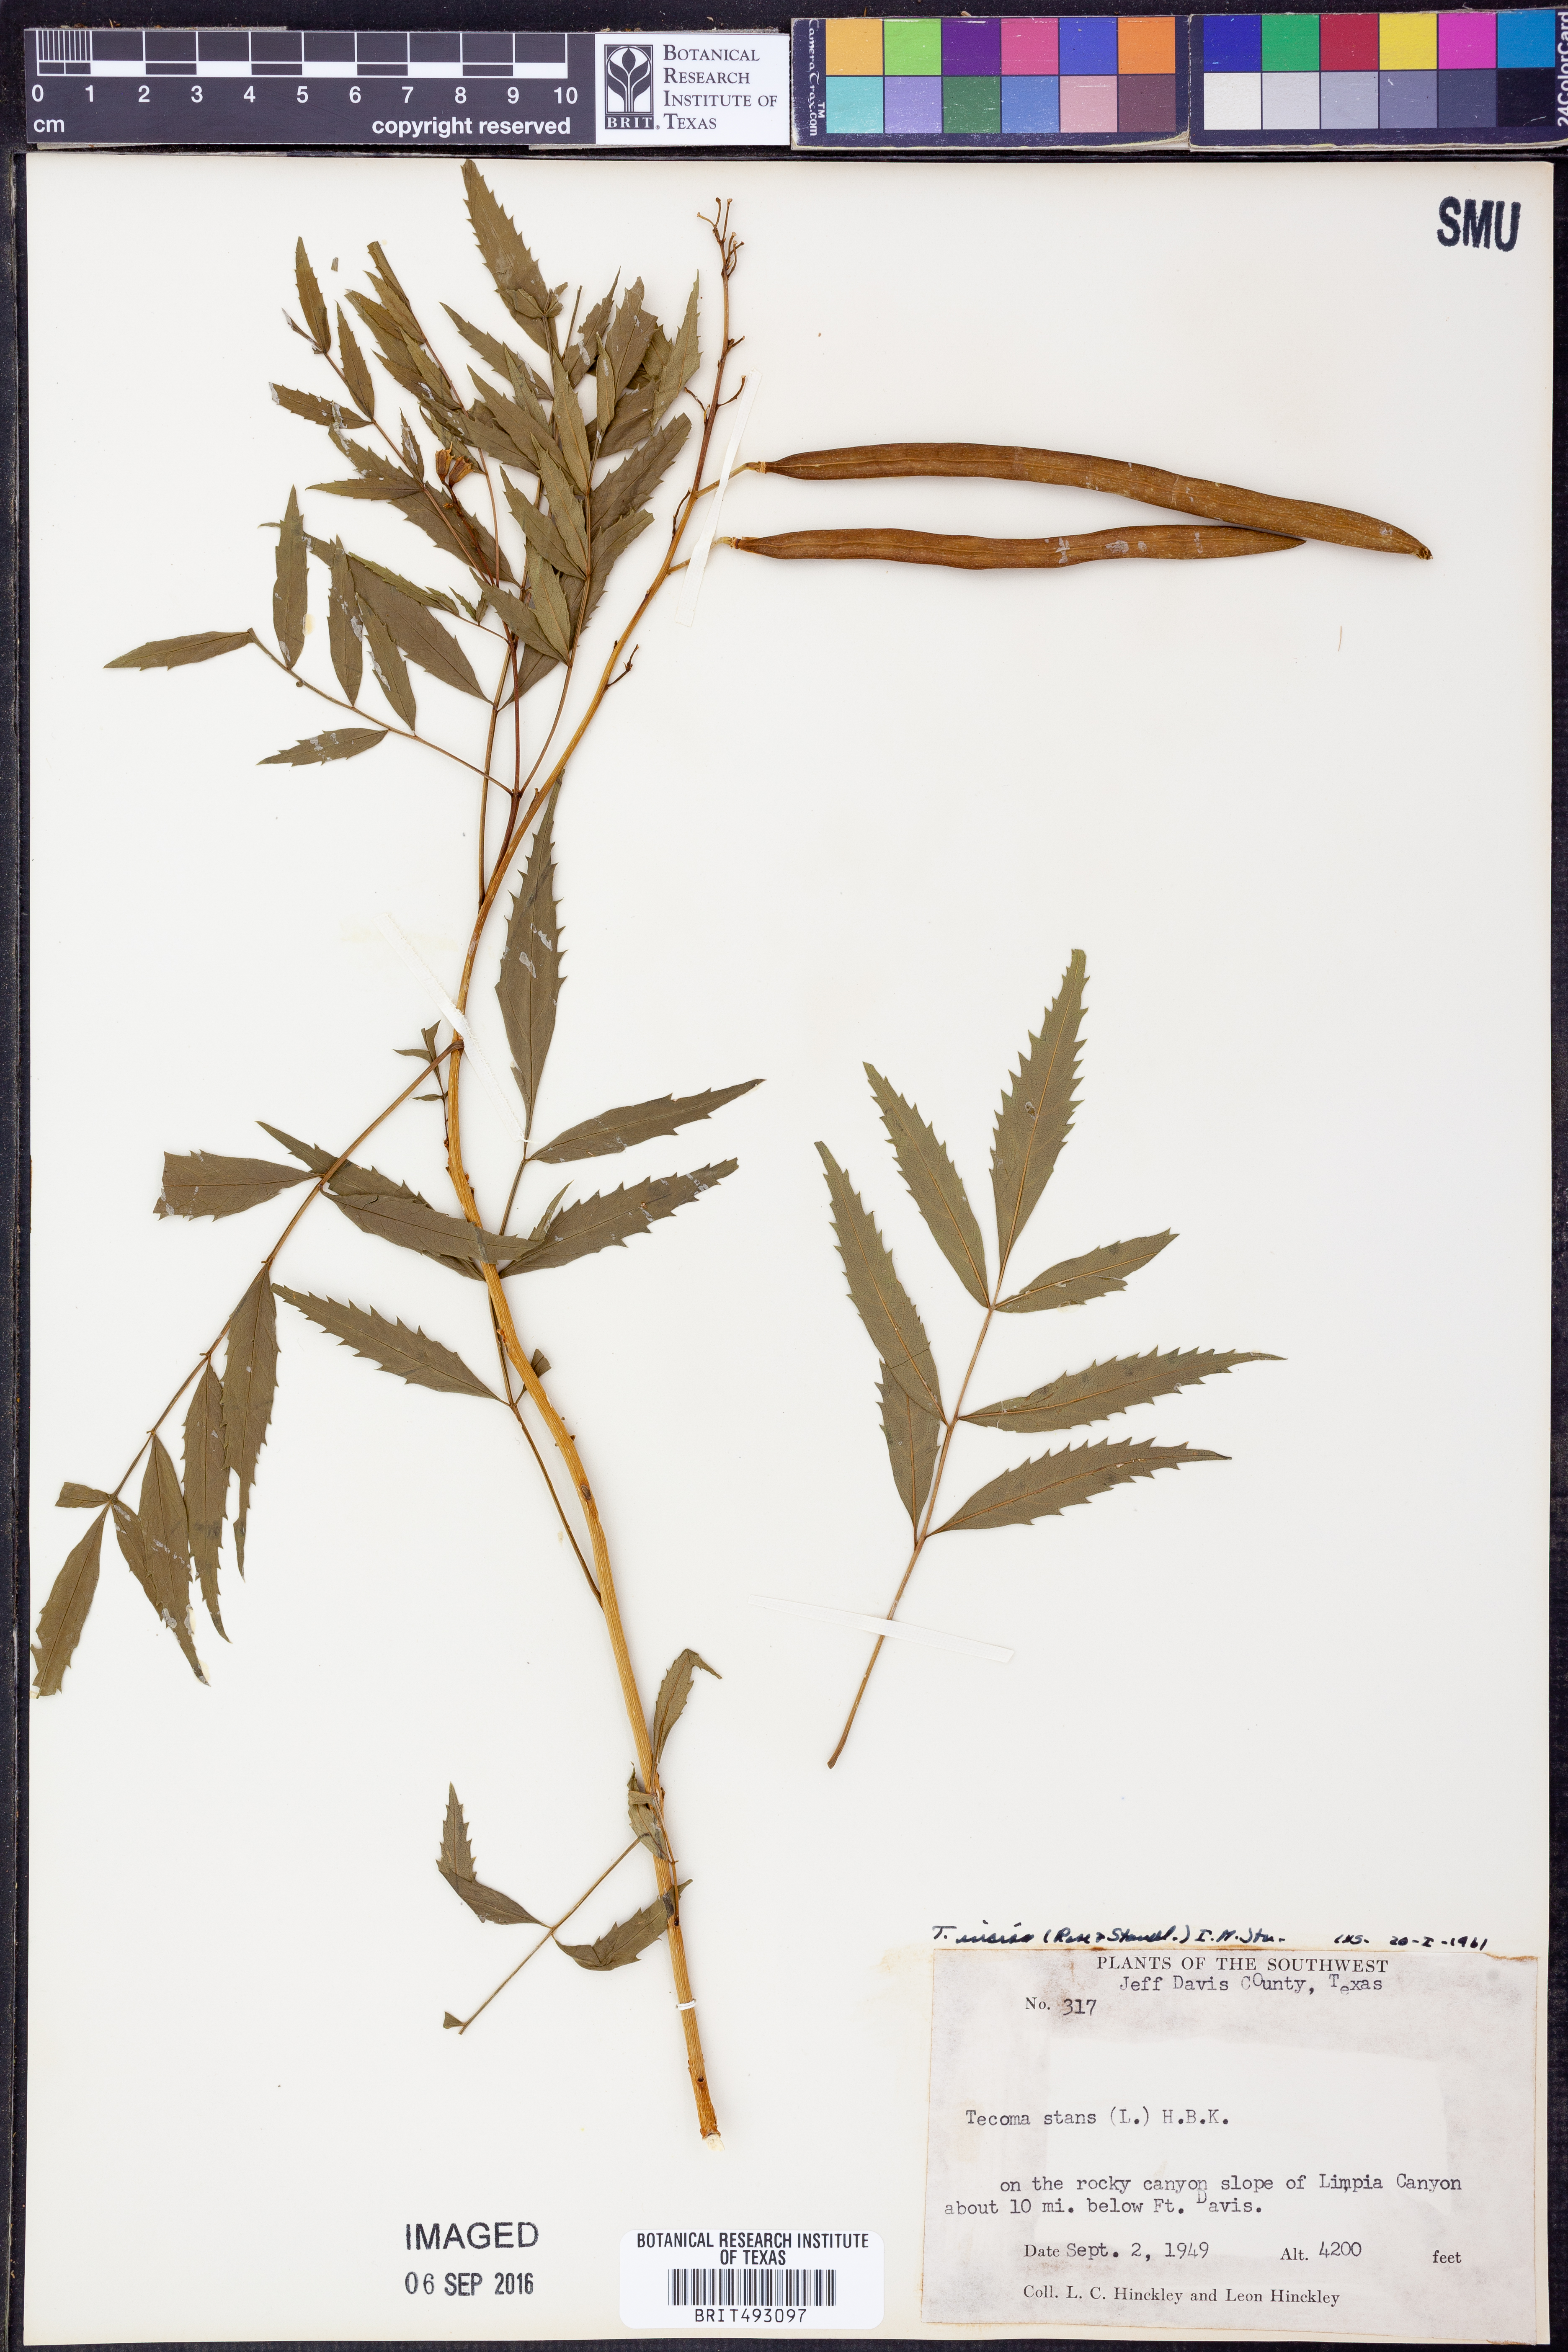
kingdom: Plantae
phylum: Tracheophyta
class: Magnoliopsida
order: Lamiales
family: Bignoniaceae
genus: Tecoma
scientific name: Tecoma stans
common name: Yellow trumpetbush
